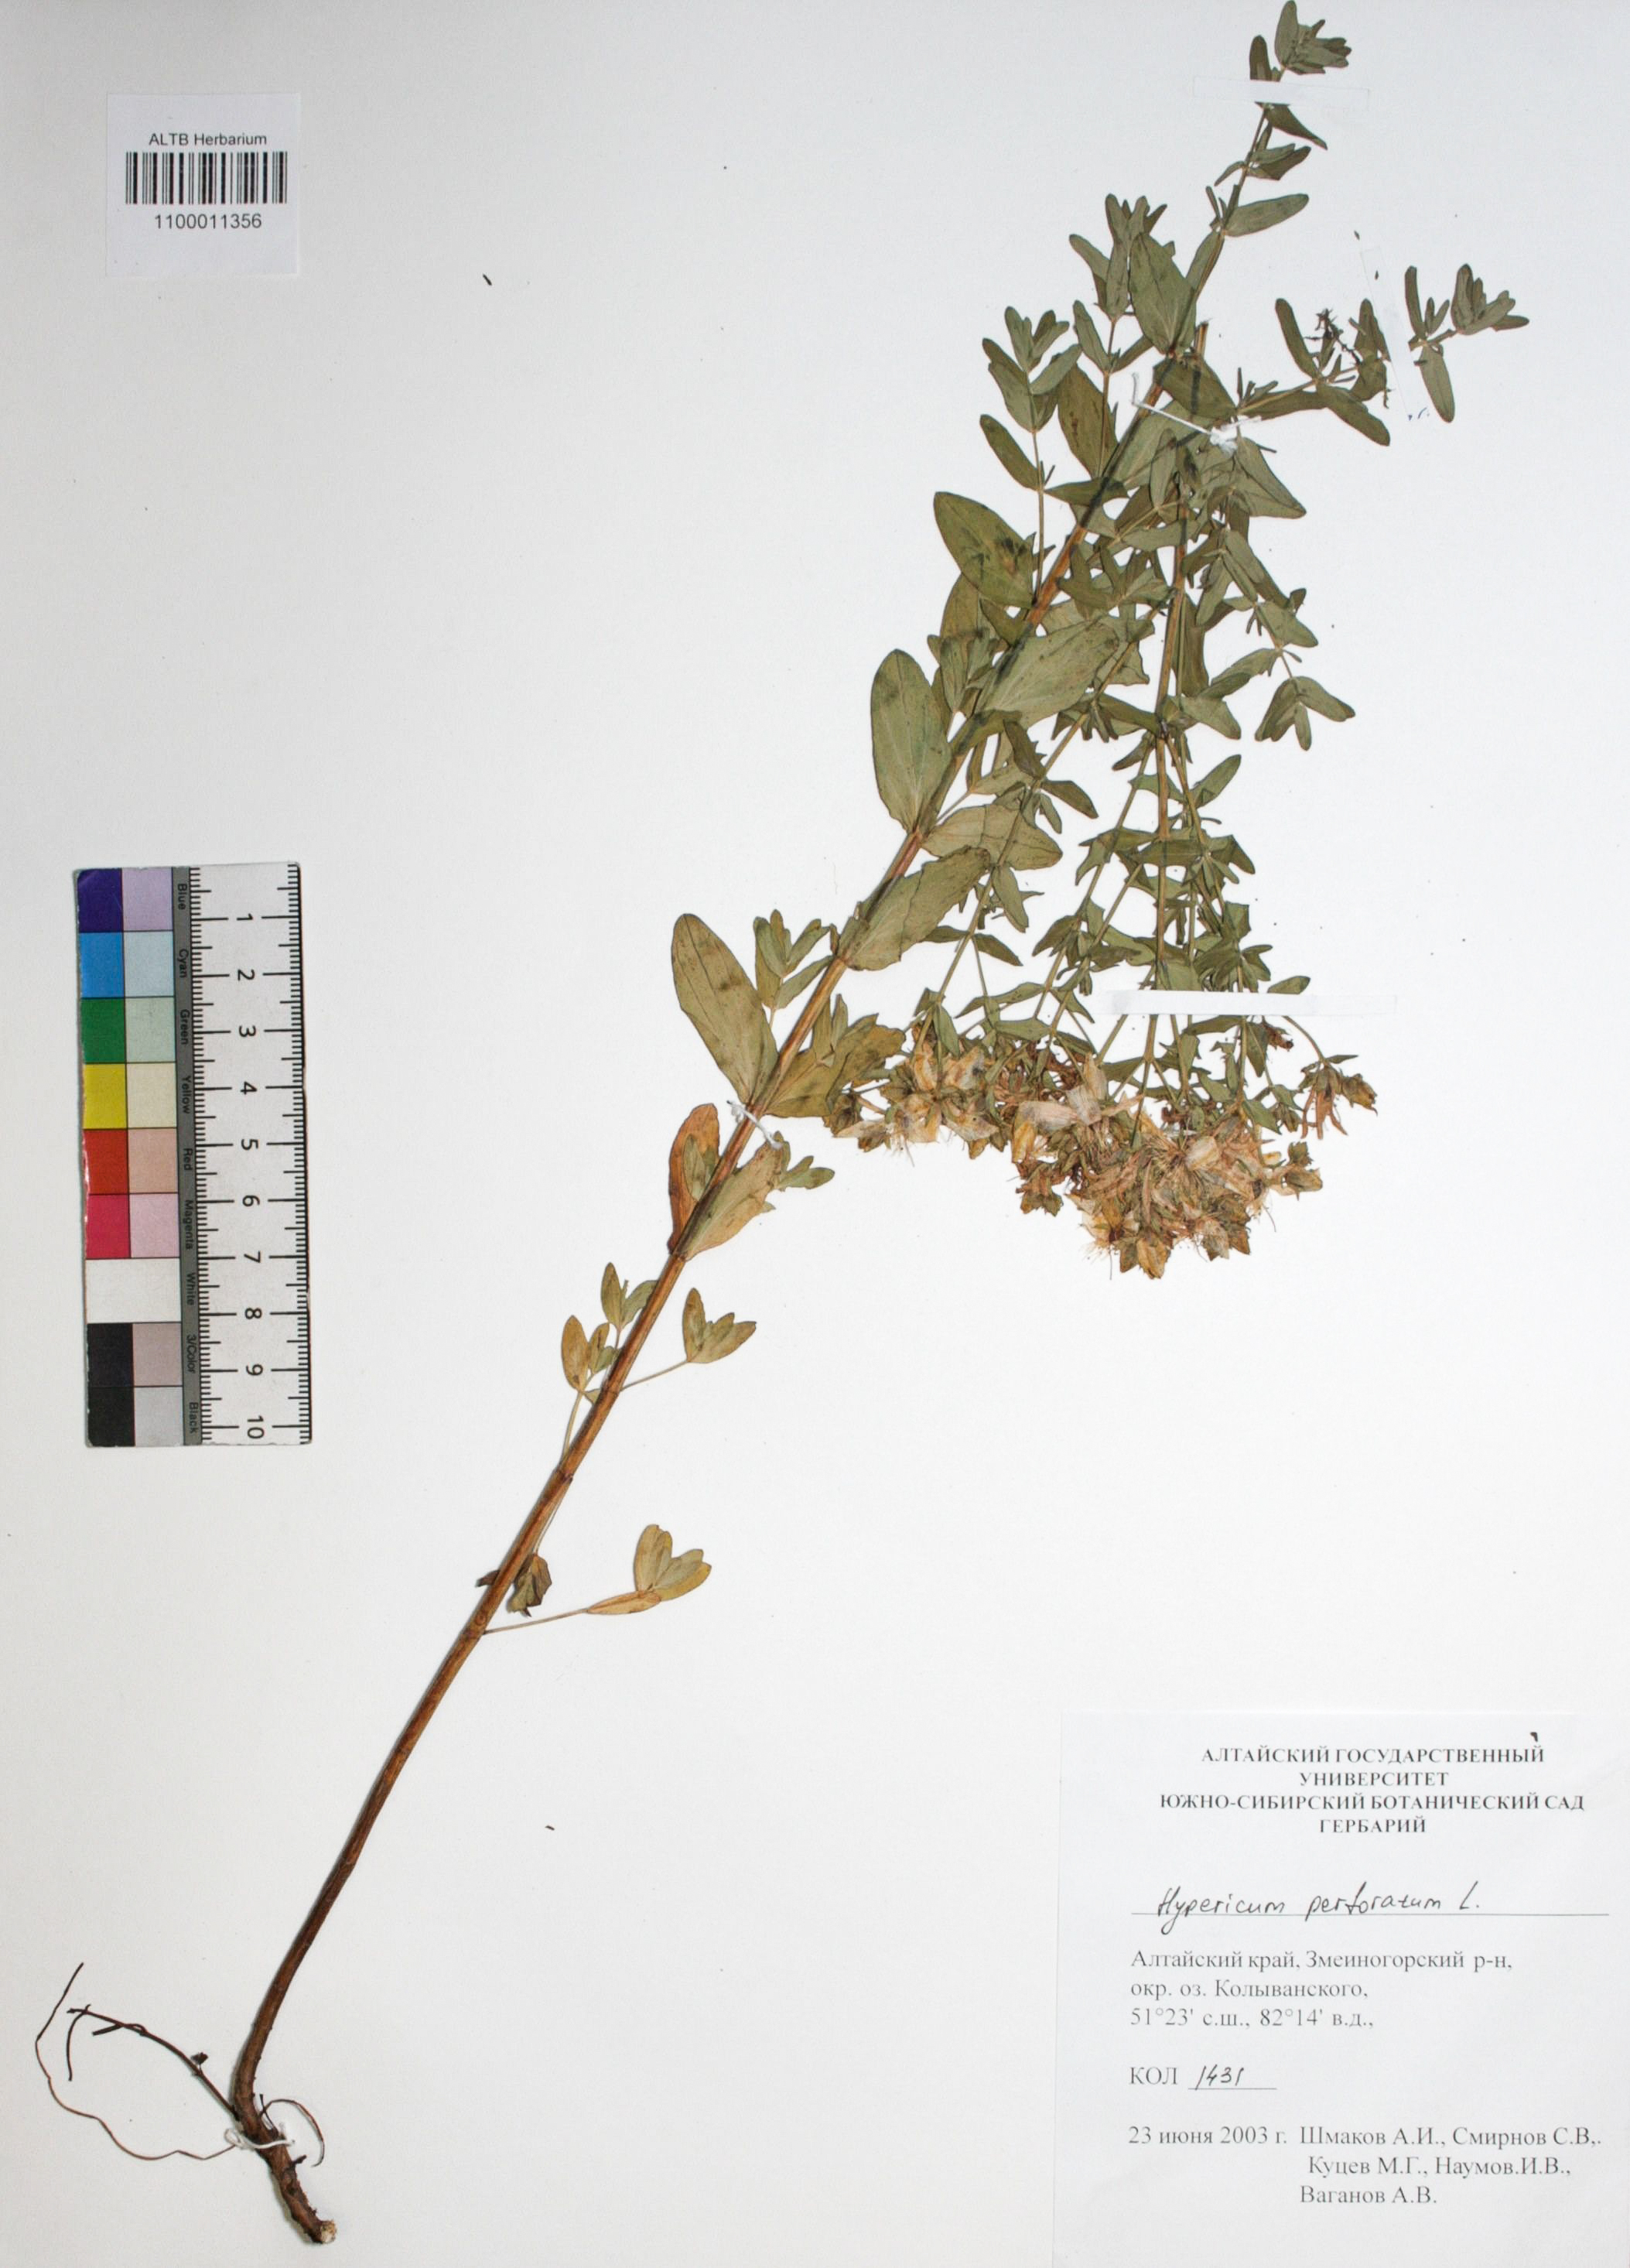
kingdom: Plantae
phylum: Tracheophyta
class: Magnoliopsida
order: Malpighiales
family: Hypericaceae
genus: Hypericum
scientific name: Hypericum perforatum
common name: Common st. johnswort
